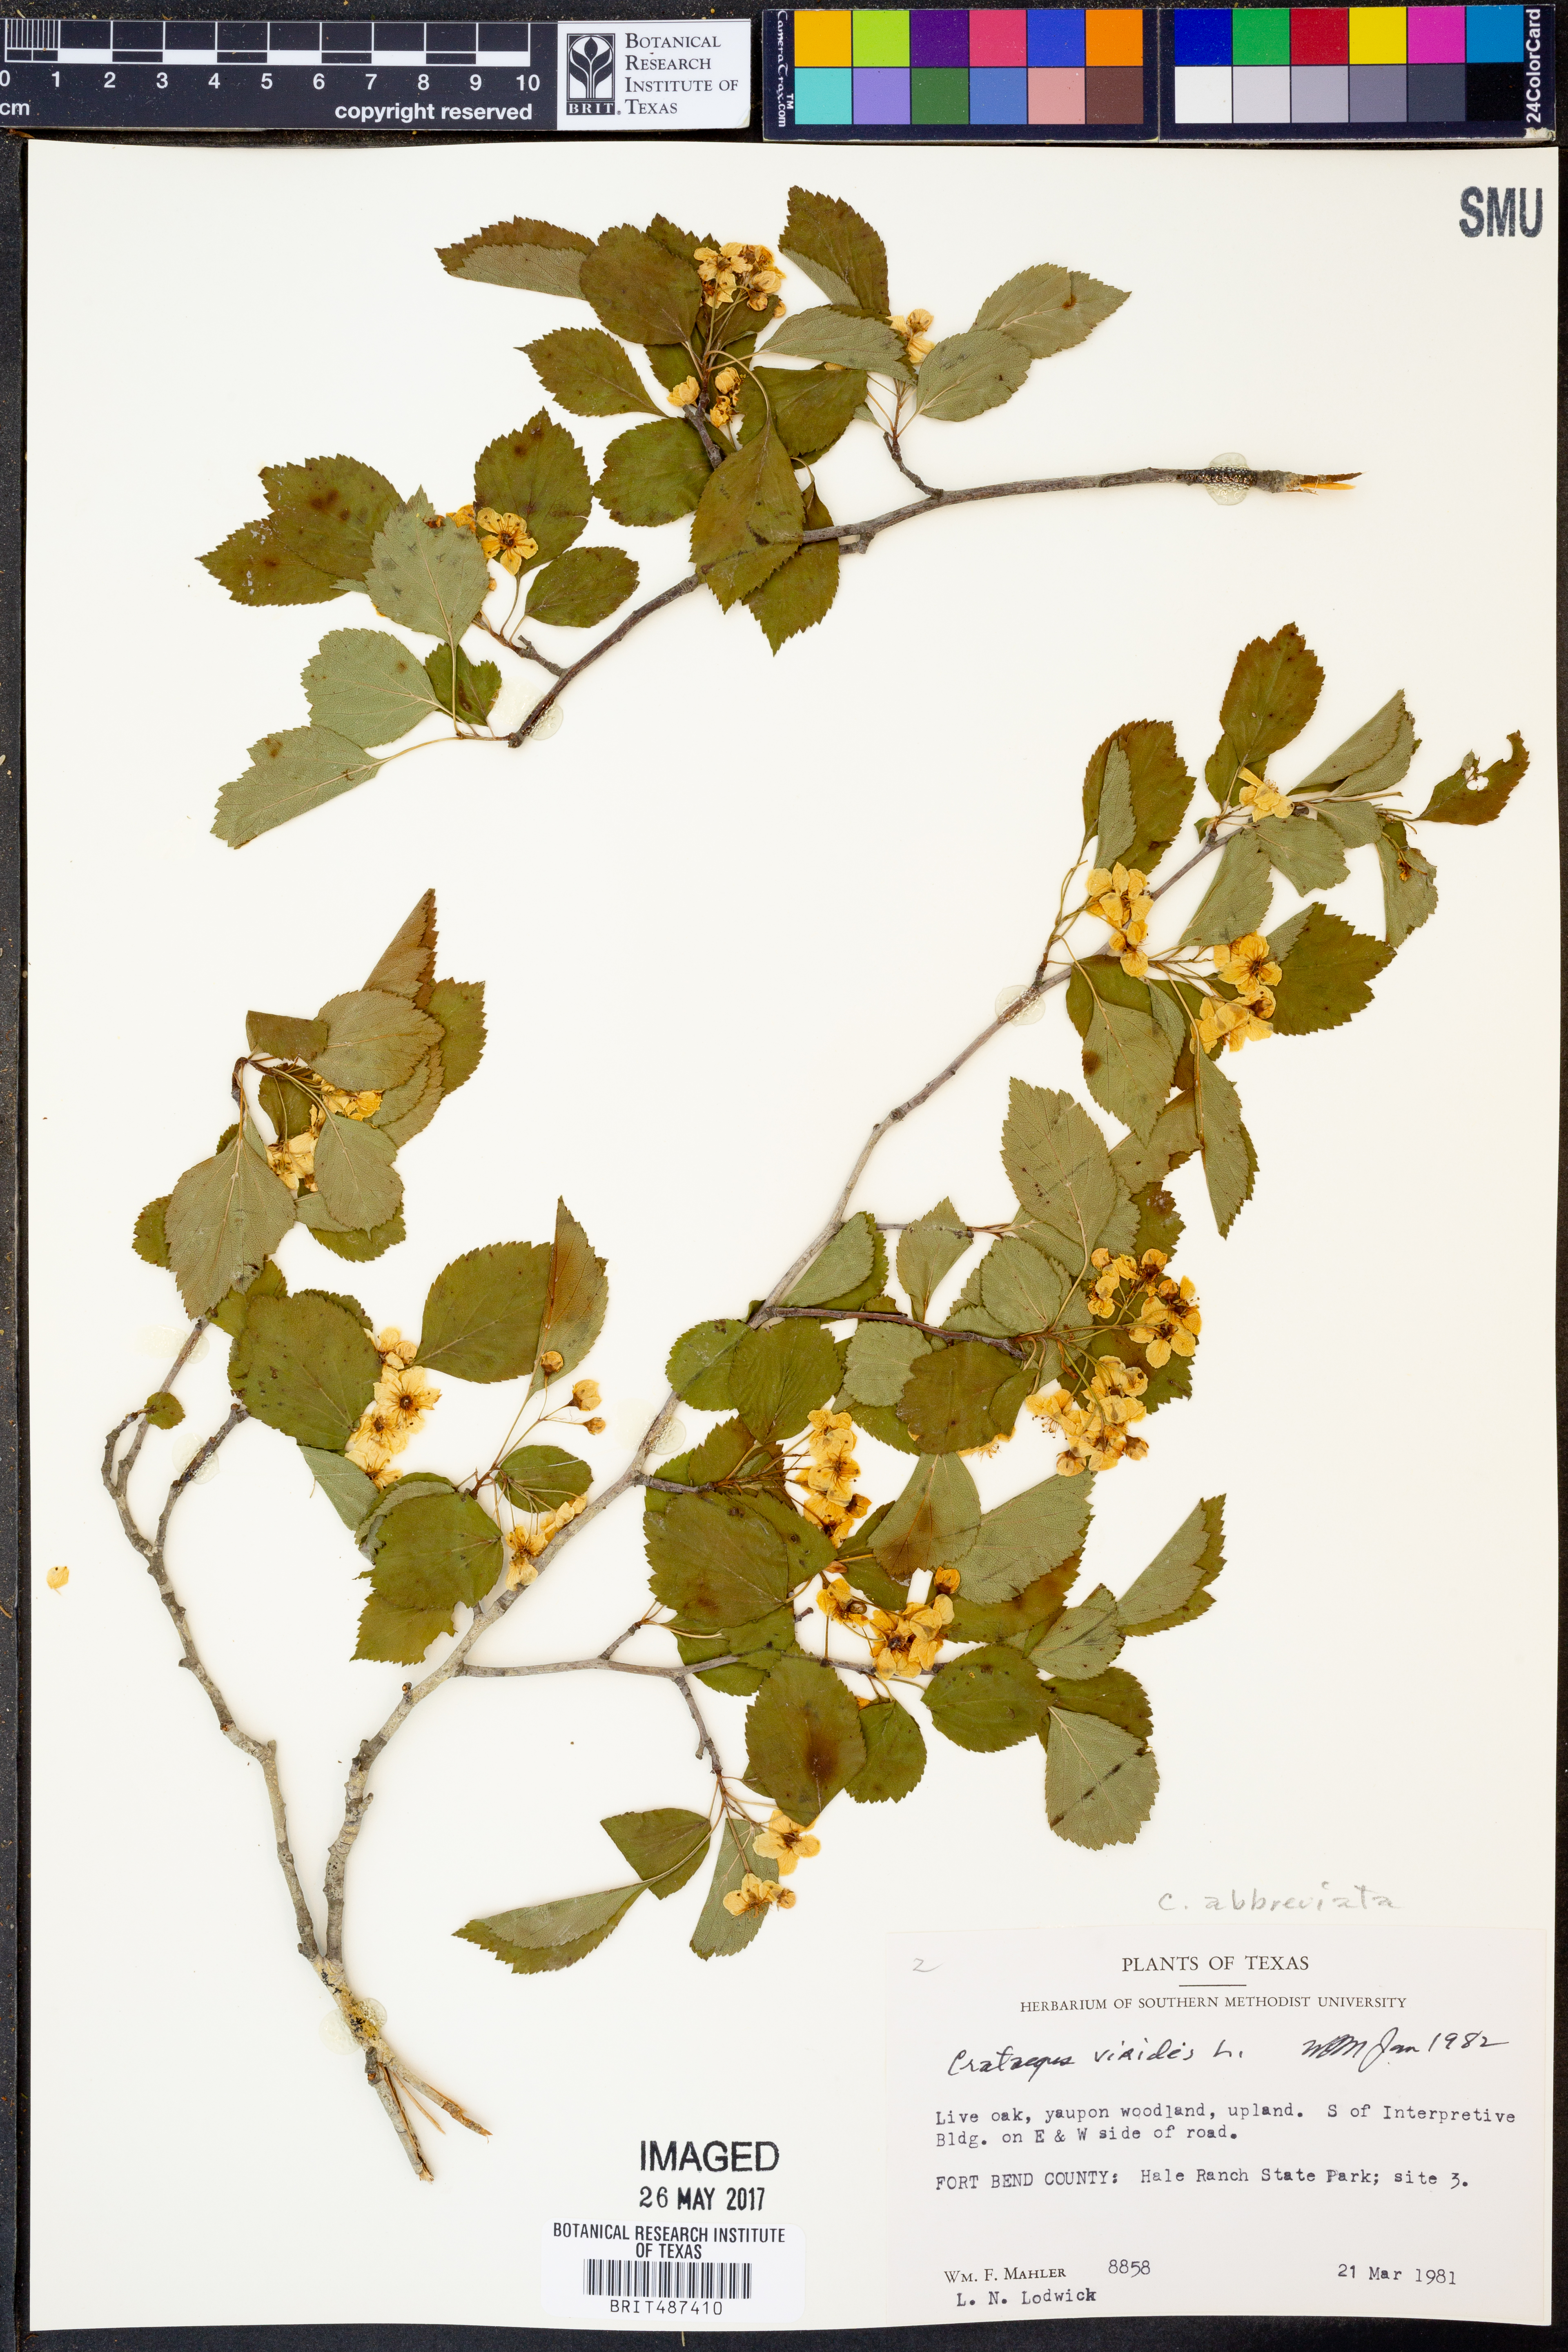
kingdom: Plantae
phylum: Tracheophyta
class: Magnoliopsida
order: Rosales
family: Rosaceae
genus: Crataegus
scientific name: Crataegus viridis
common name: Southernthorn
